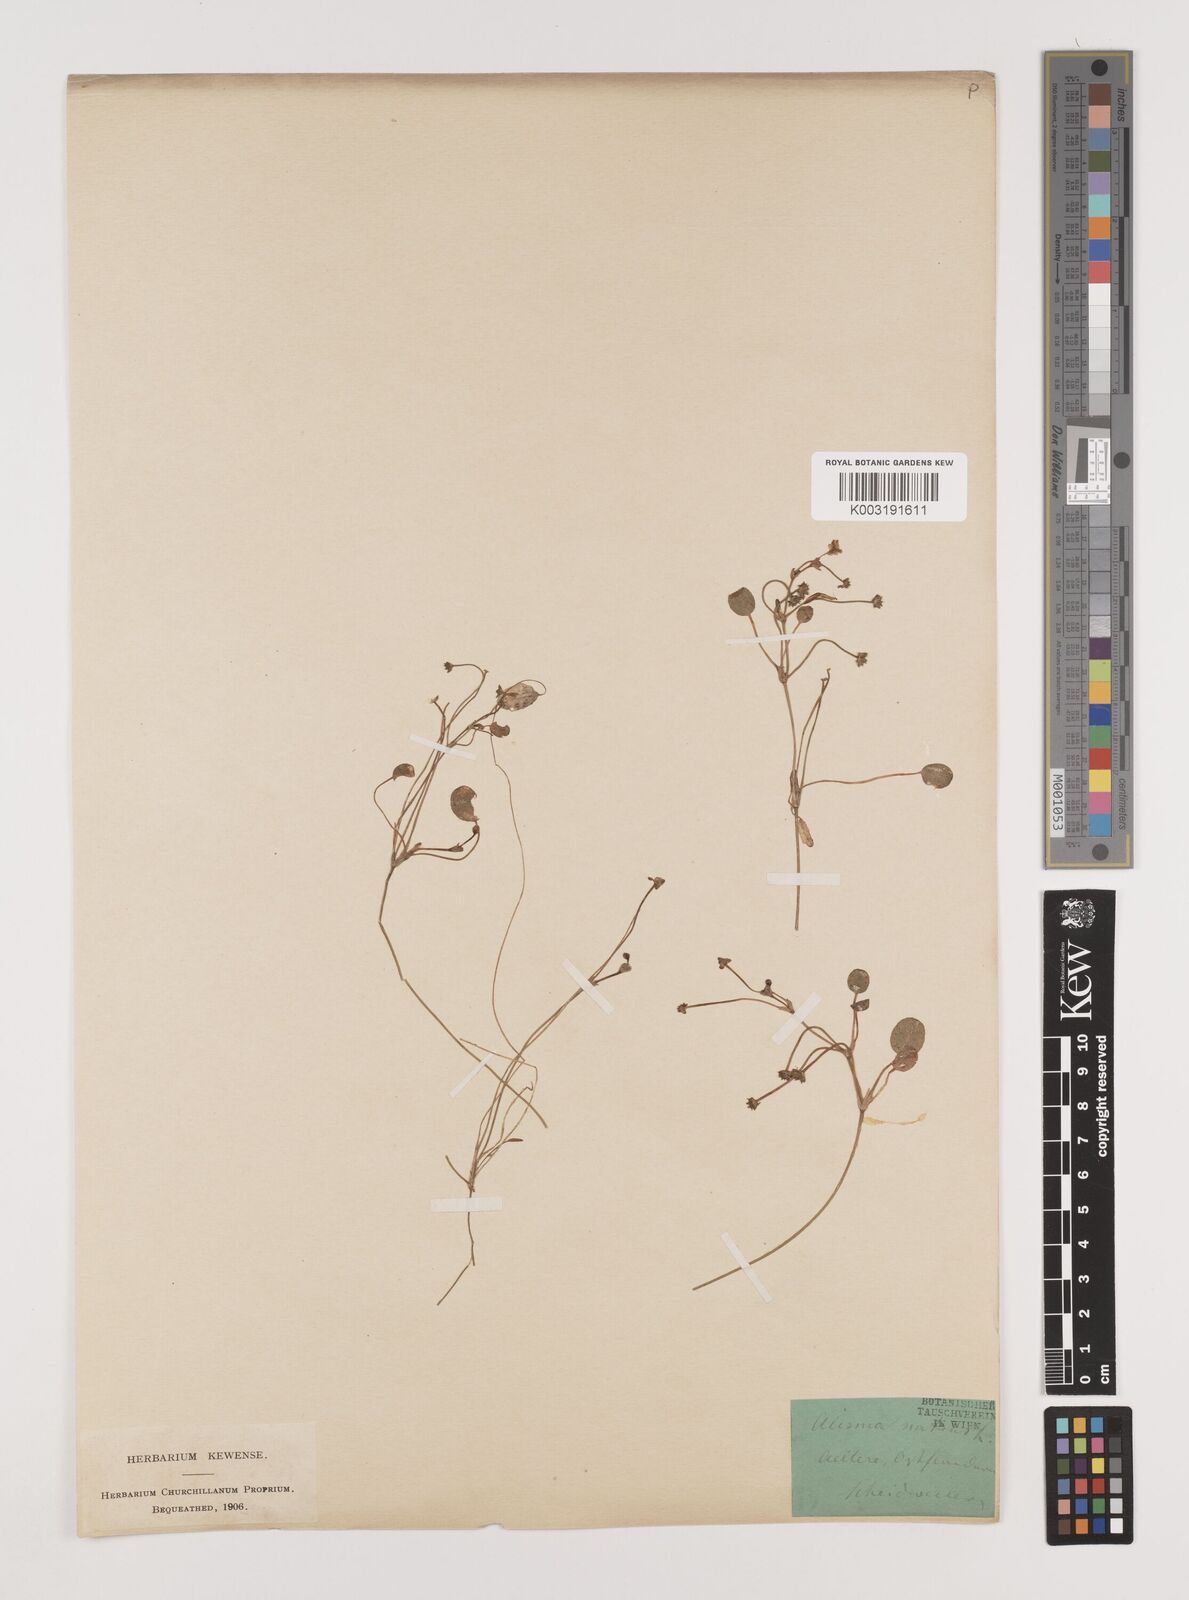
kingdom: Plantae
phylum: Tracheophyta
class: Liliopsida
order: Alismatales
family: Alismataceae
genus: Luronium
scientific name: Luronium natans
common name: Floating water-plantain
